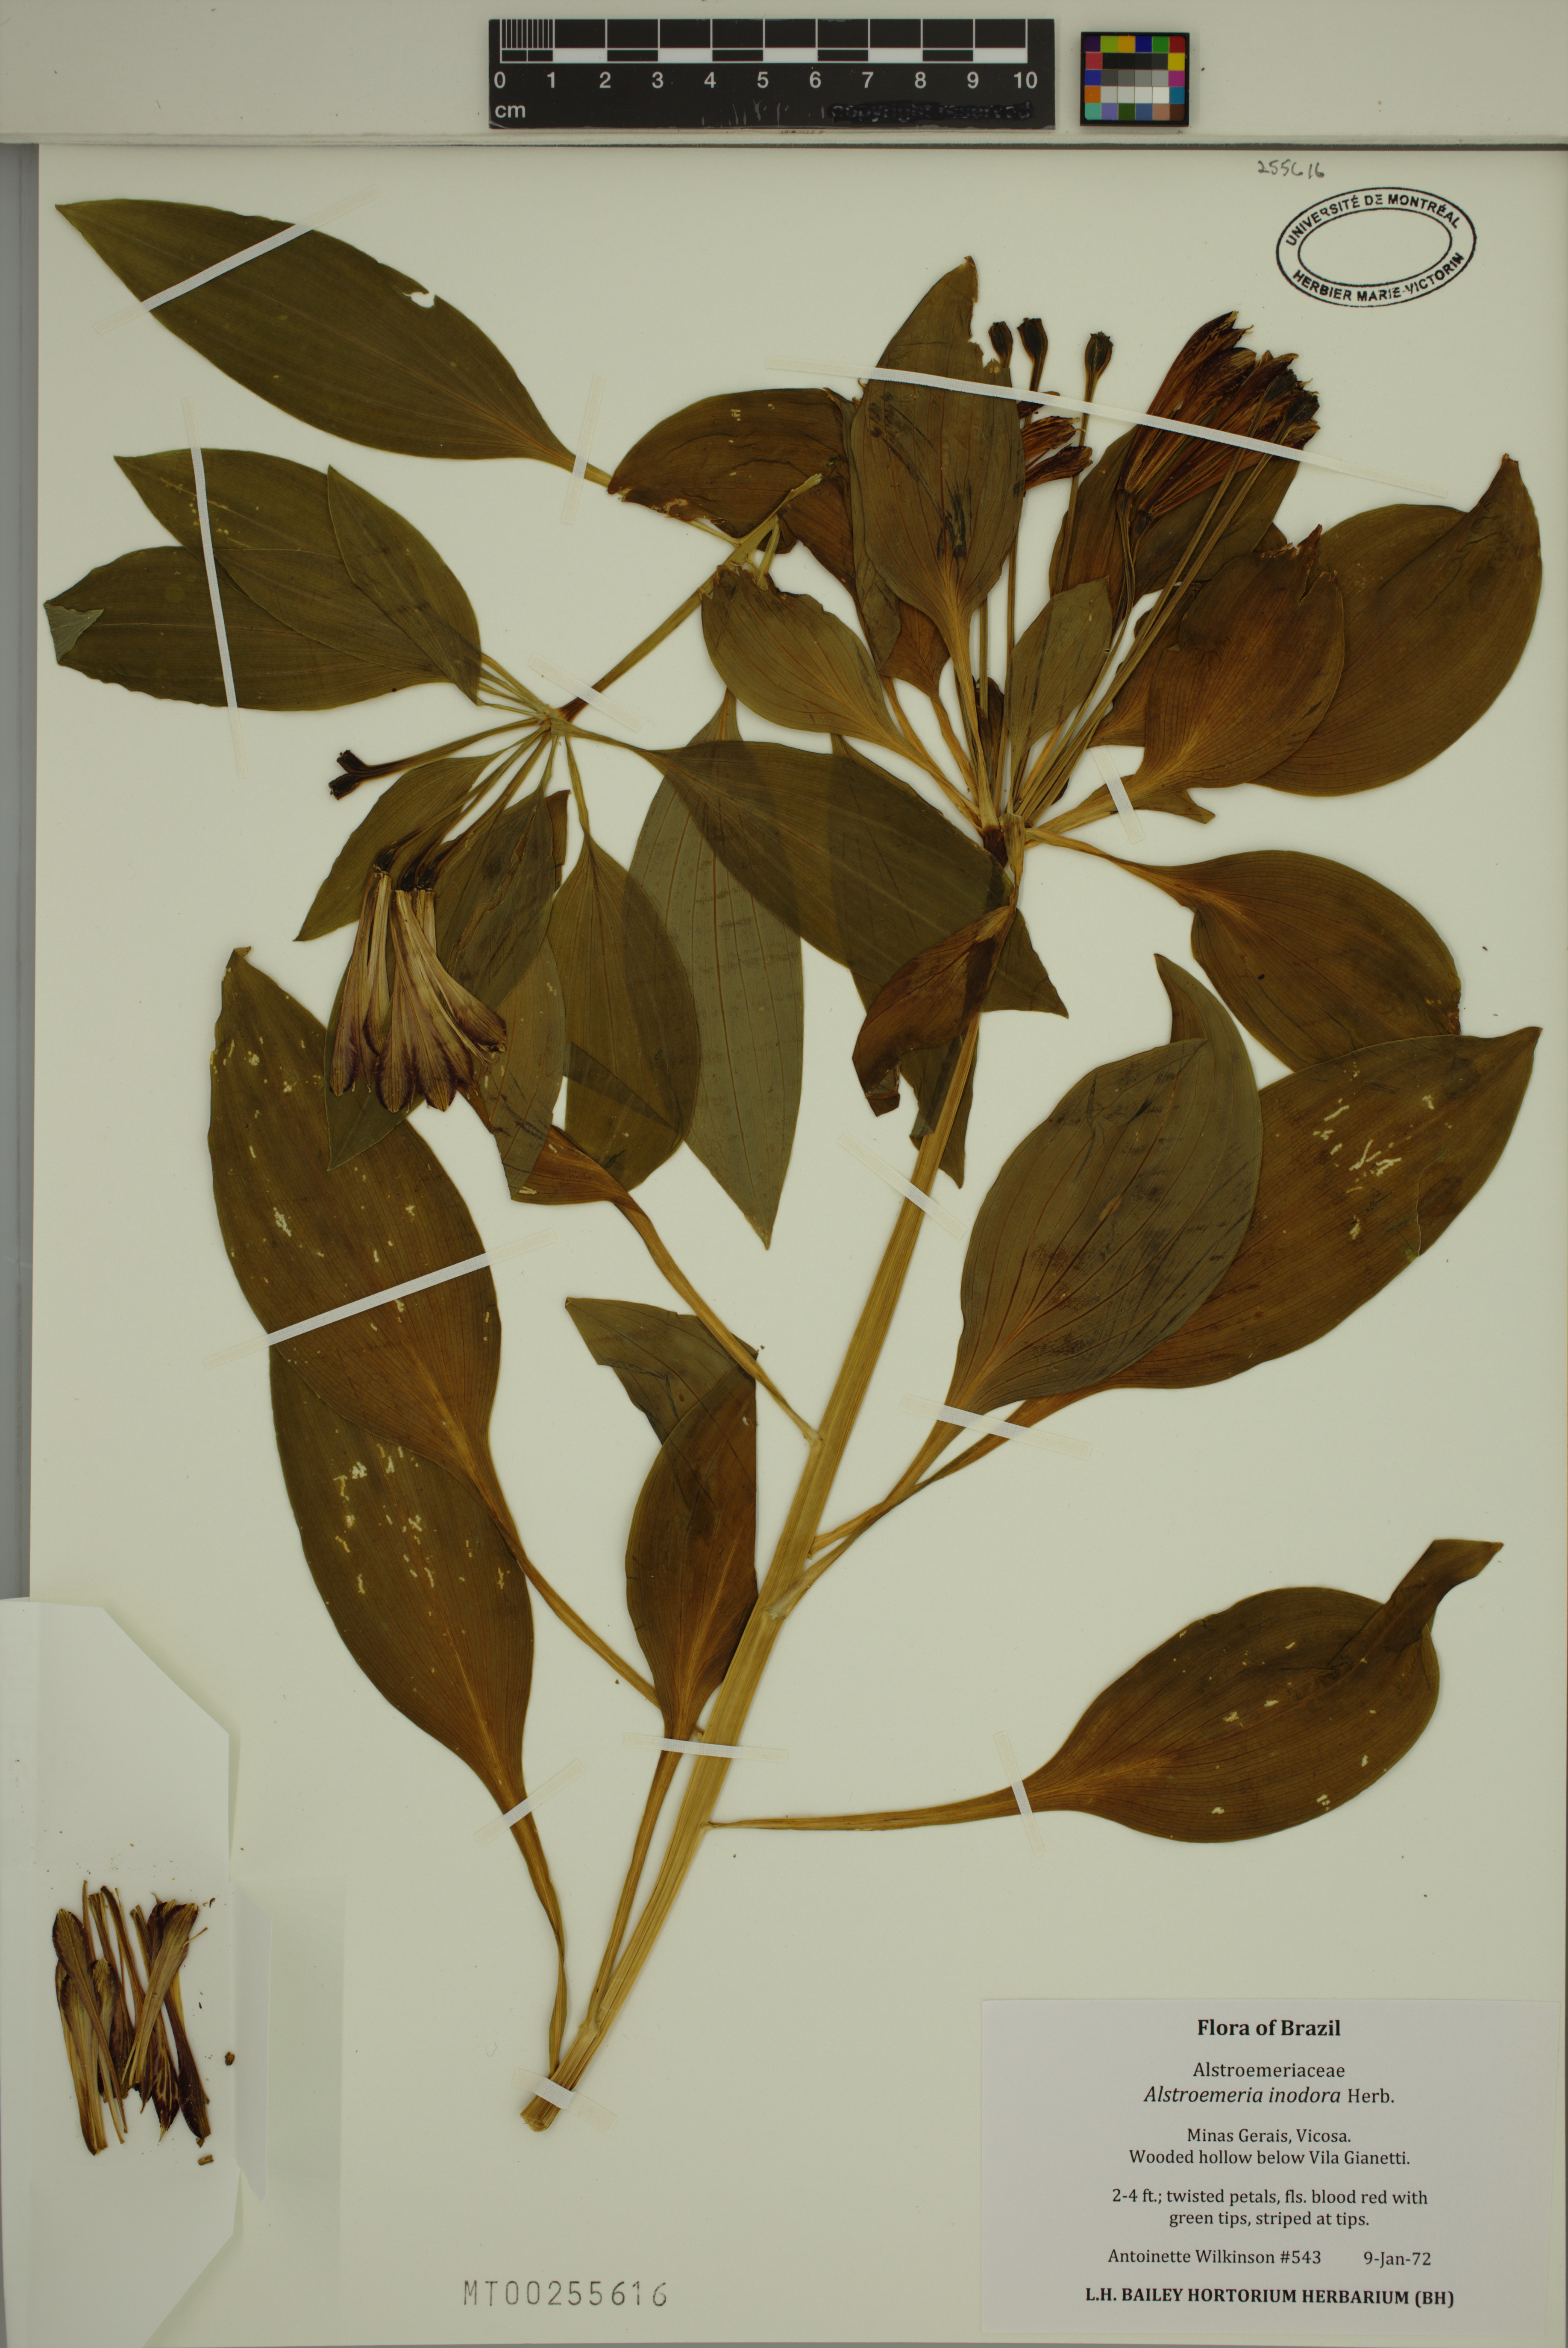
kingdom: Plantae
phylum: Tracheophyta
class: Liliopsida
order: Liliales
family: Alstroemeriaceae
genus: Alstroemeria
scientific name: Alstroemeria inodora
